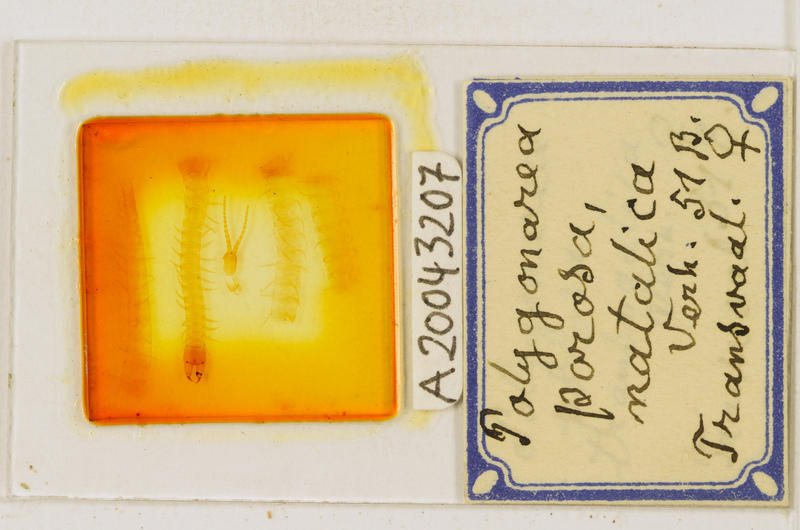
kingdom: Animalia
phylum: Arthropoda
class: Chilopoda
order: Geophilomorpha
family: Geophilidae
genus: Polygonarea
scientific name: Polygonarea africana
